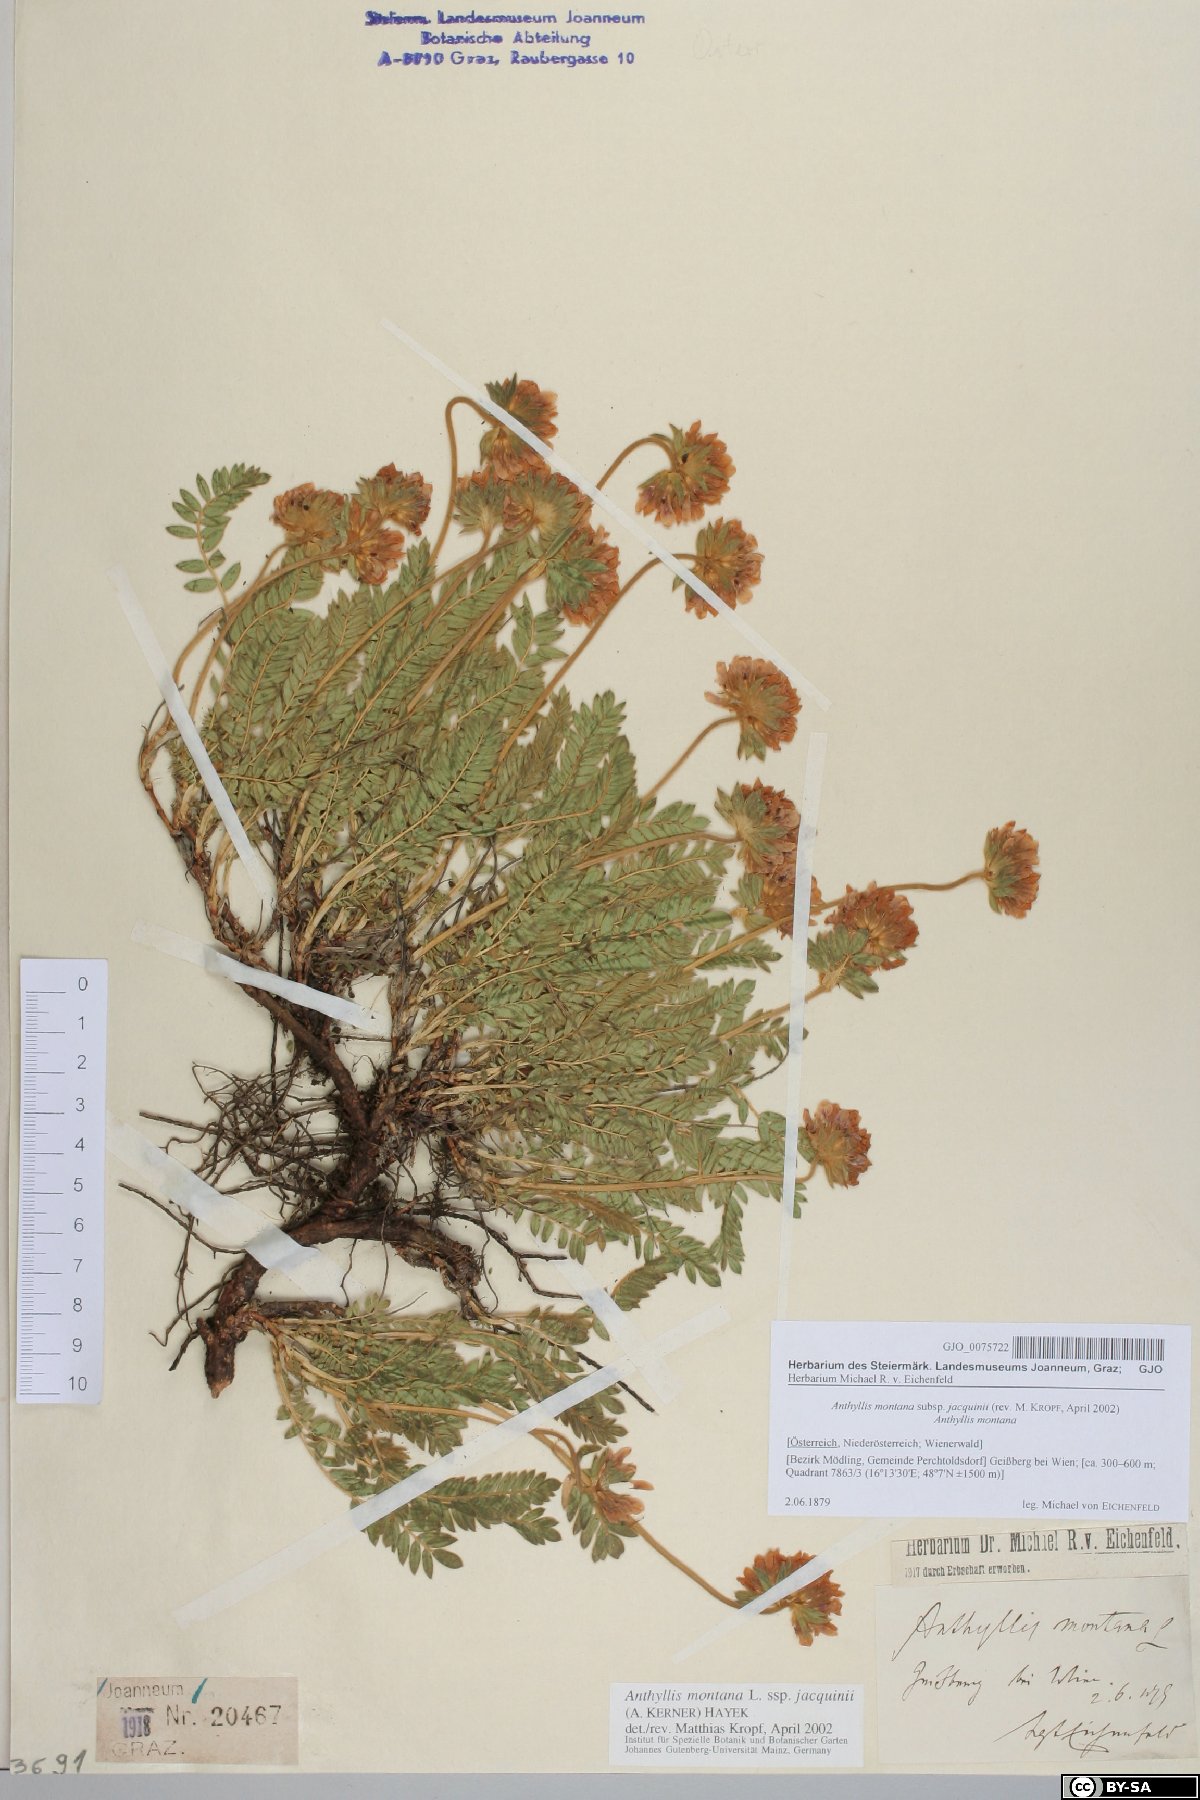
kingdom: Plantae
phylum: Tracheophyta
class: Magnoliopsida
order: Fabales
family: Fabaceae
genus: Anthyllis
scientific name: Anthyllis montana
